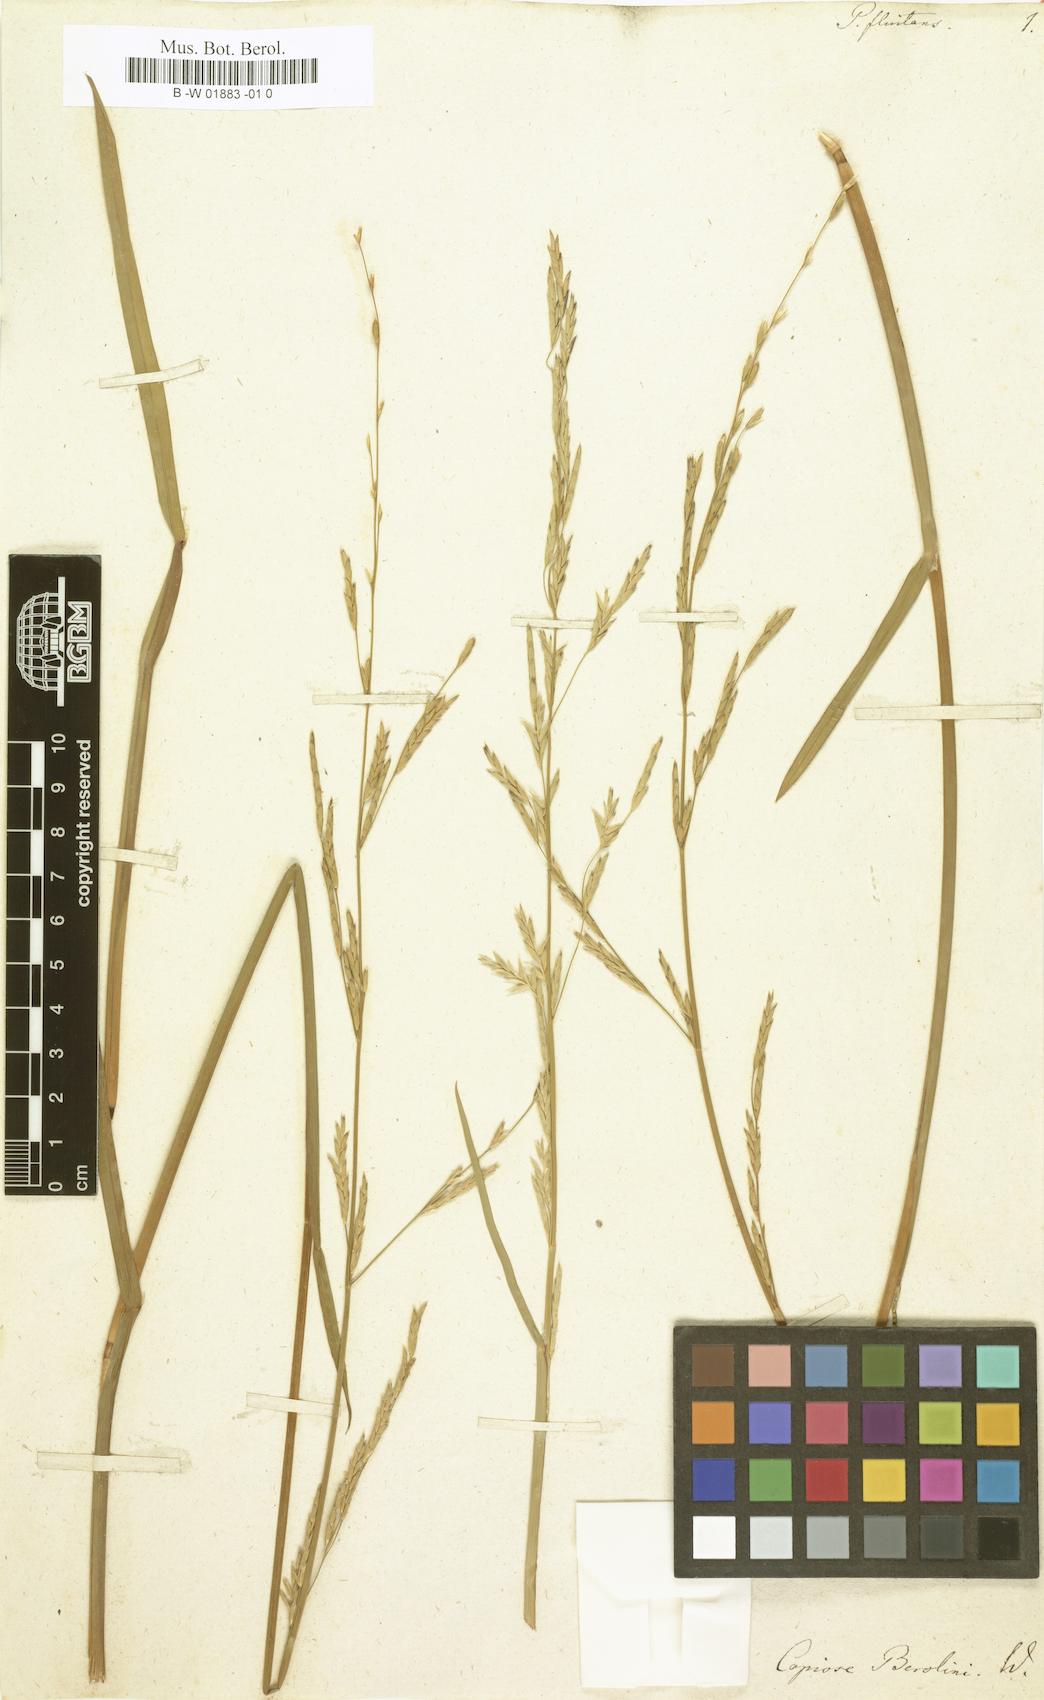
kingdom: Plantae
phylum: Tracheophyta
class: Liliopsida
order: Poales
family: Poaceae
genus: Glyceria
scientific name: Glyceria fluitans
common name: Floating sweet-grass
